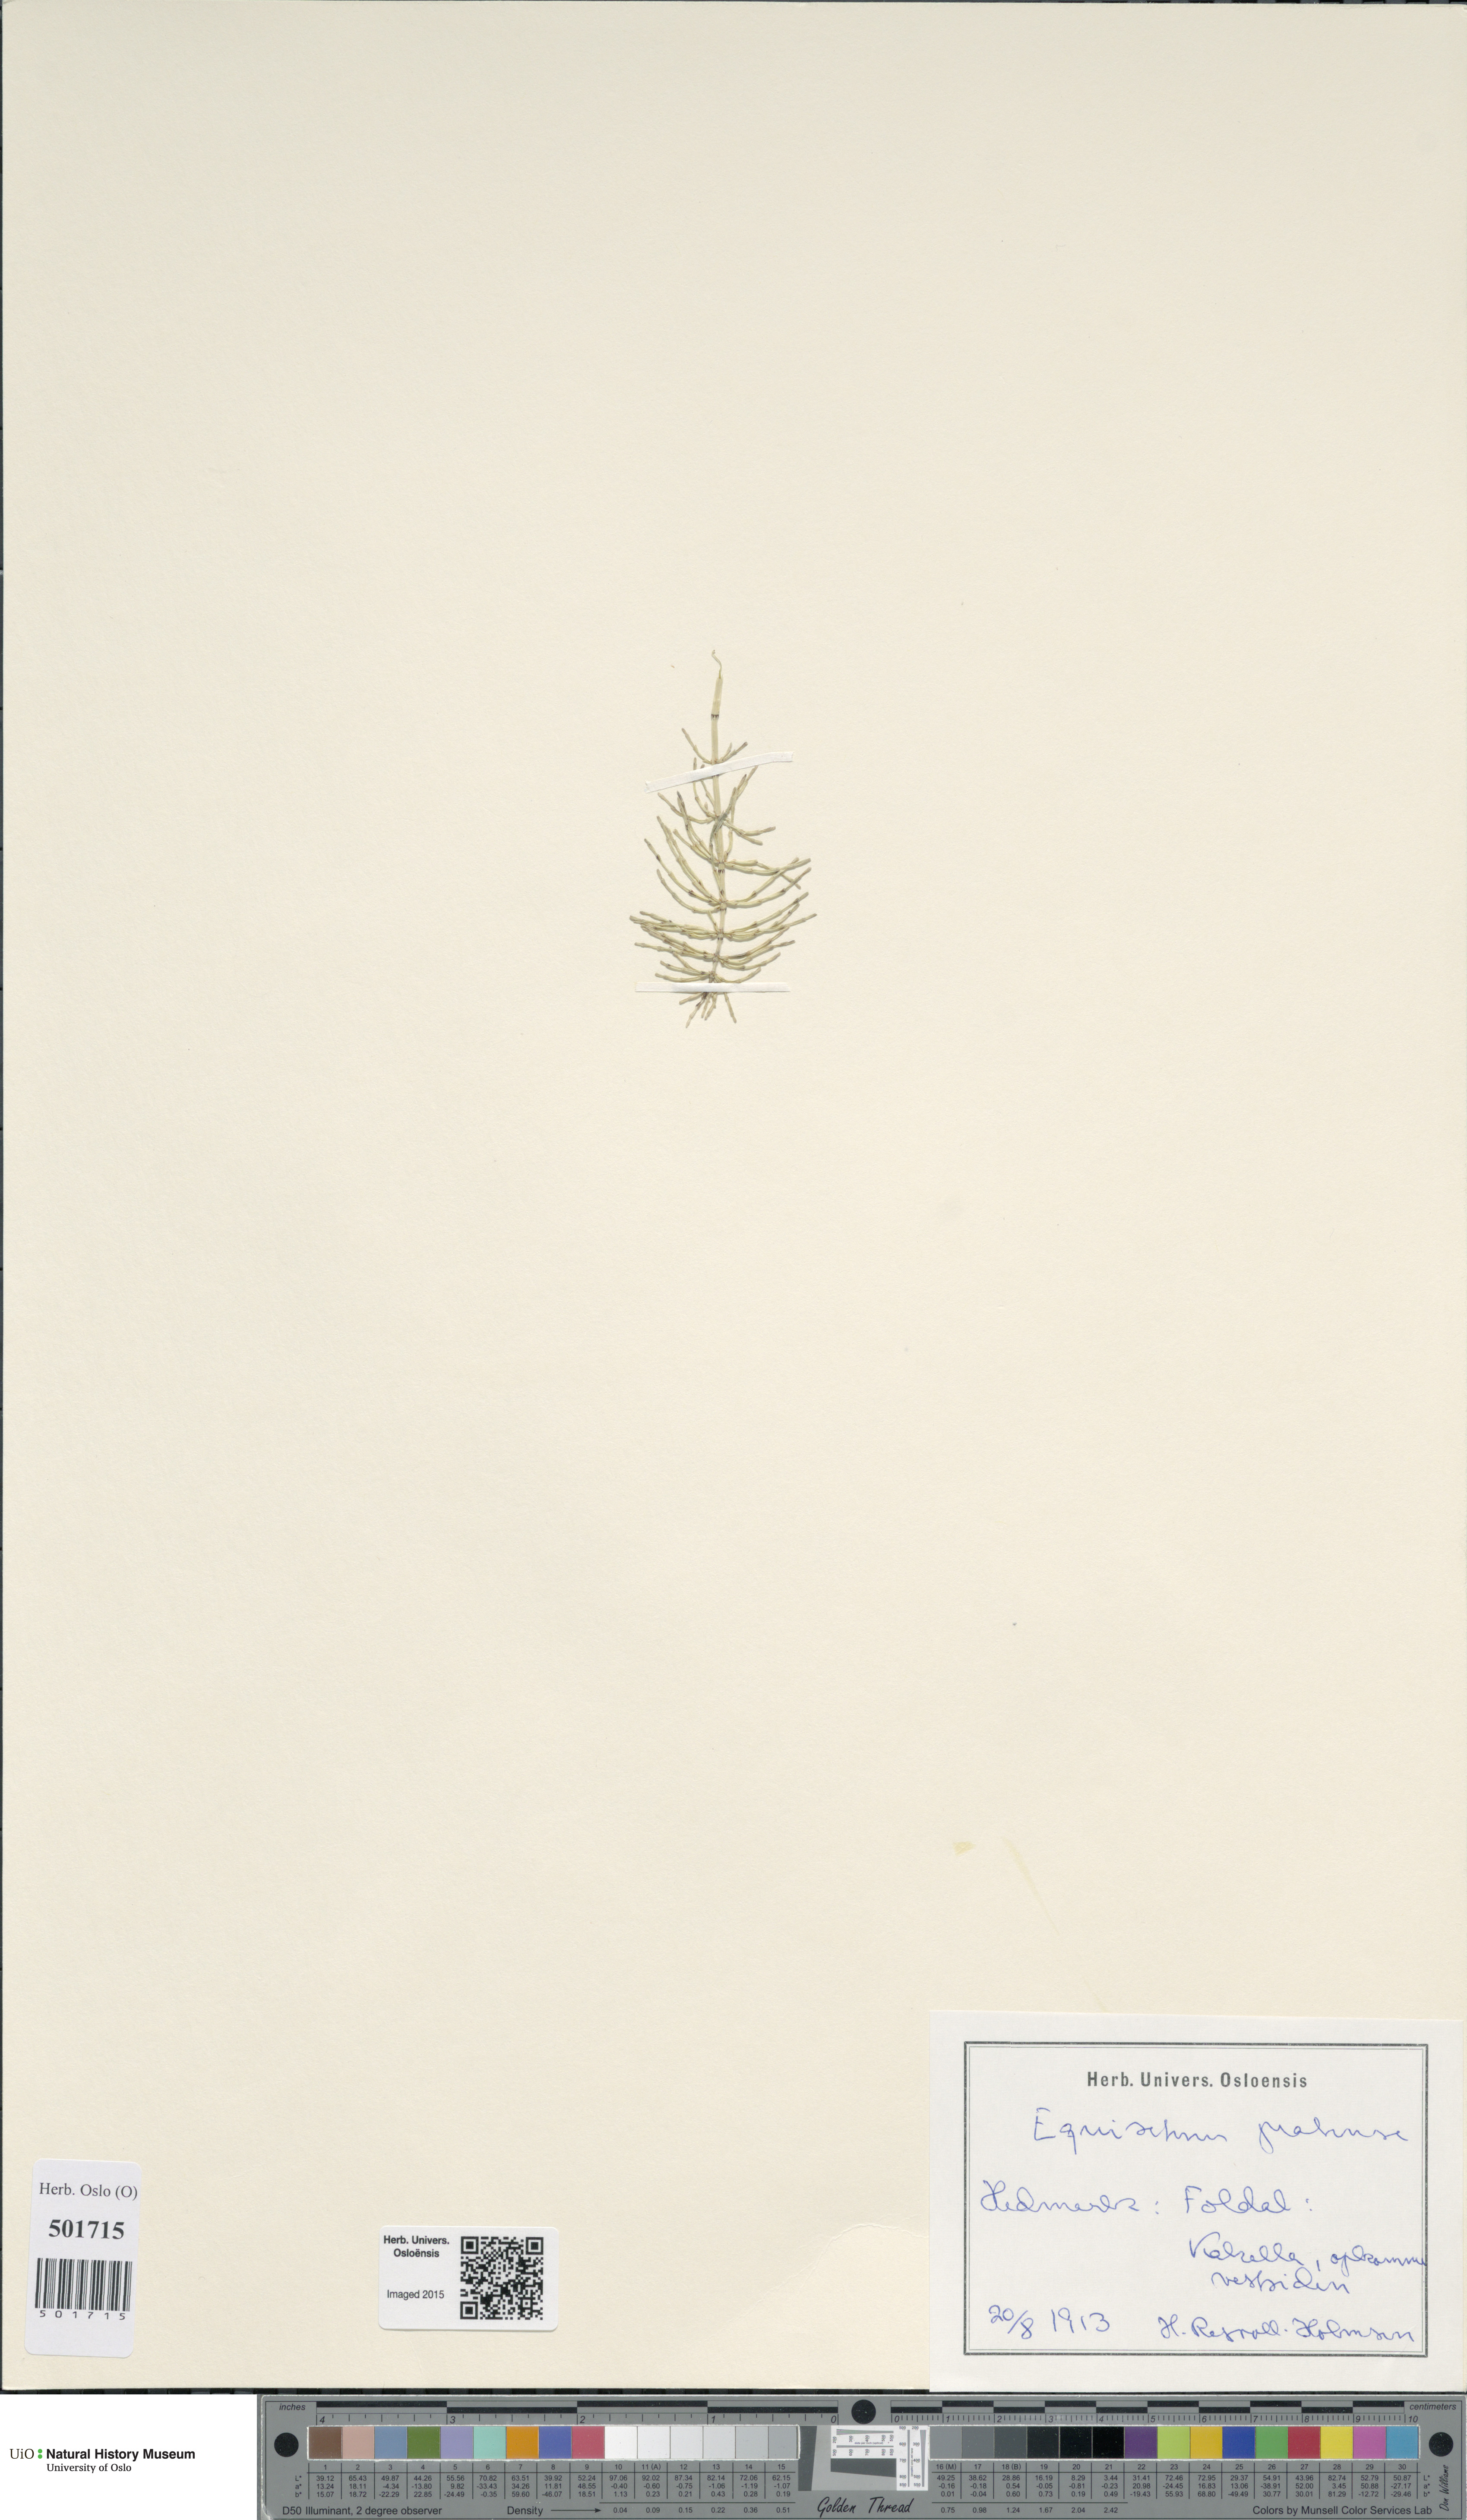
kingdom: Plantae
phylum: Tracheophyta
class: Polypodiopsida
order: Equisetales
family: Equisetaceae
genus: Equisetum
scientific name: Equisetum pratense
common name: Meadow horsetail
